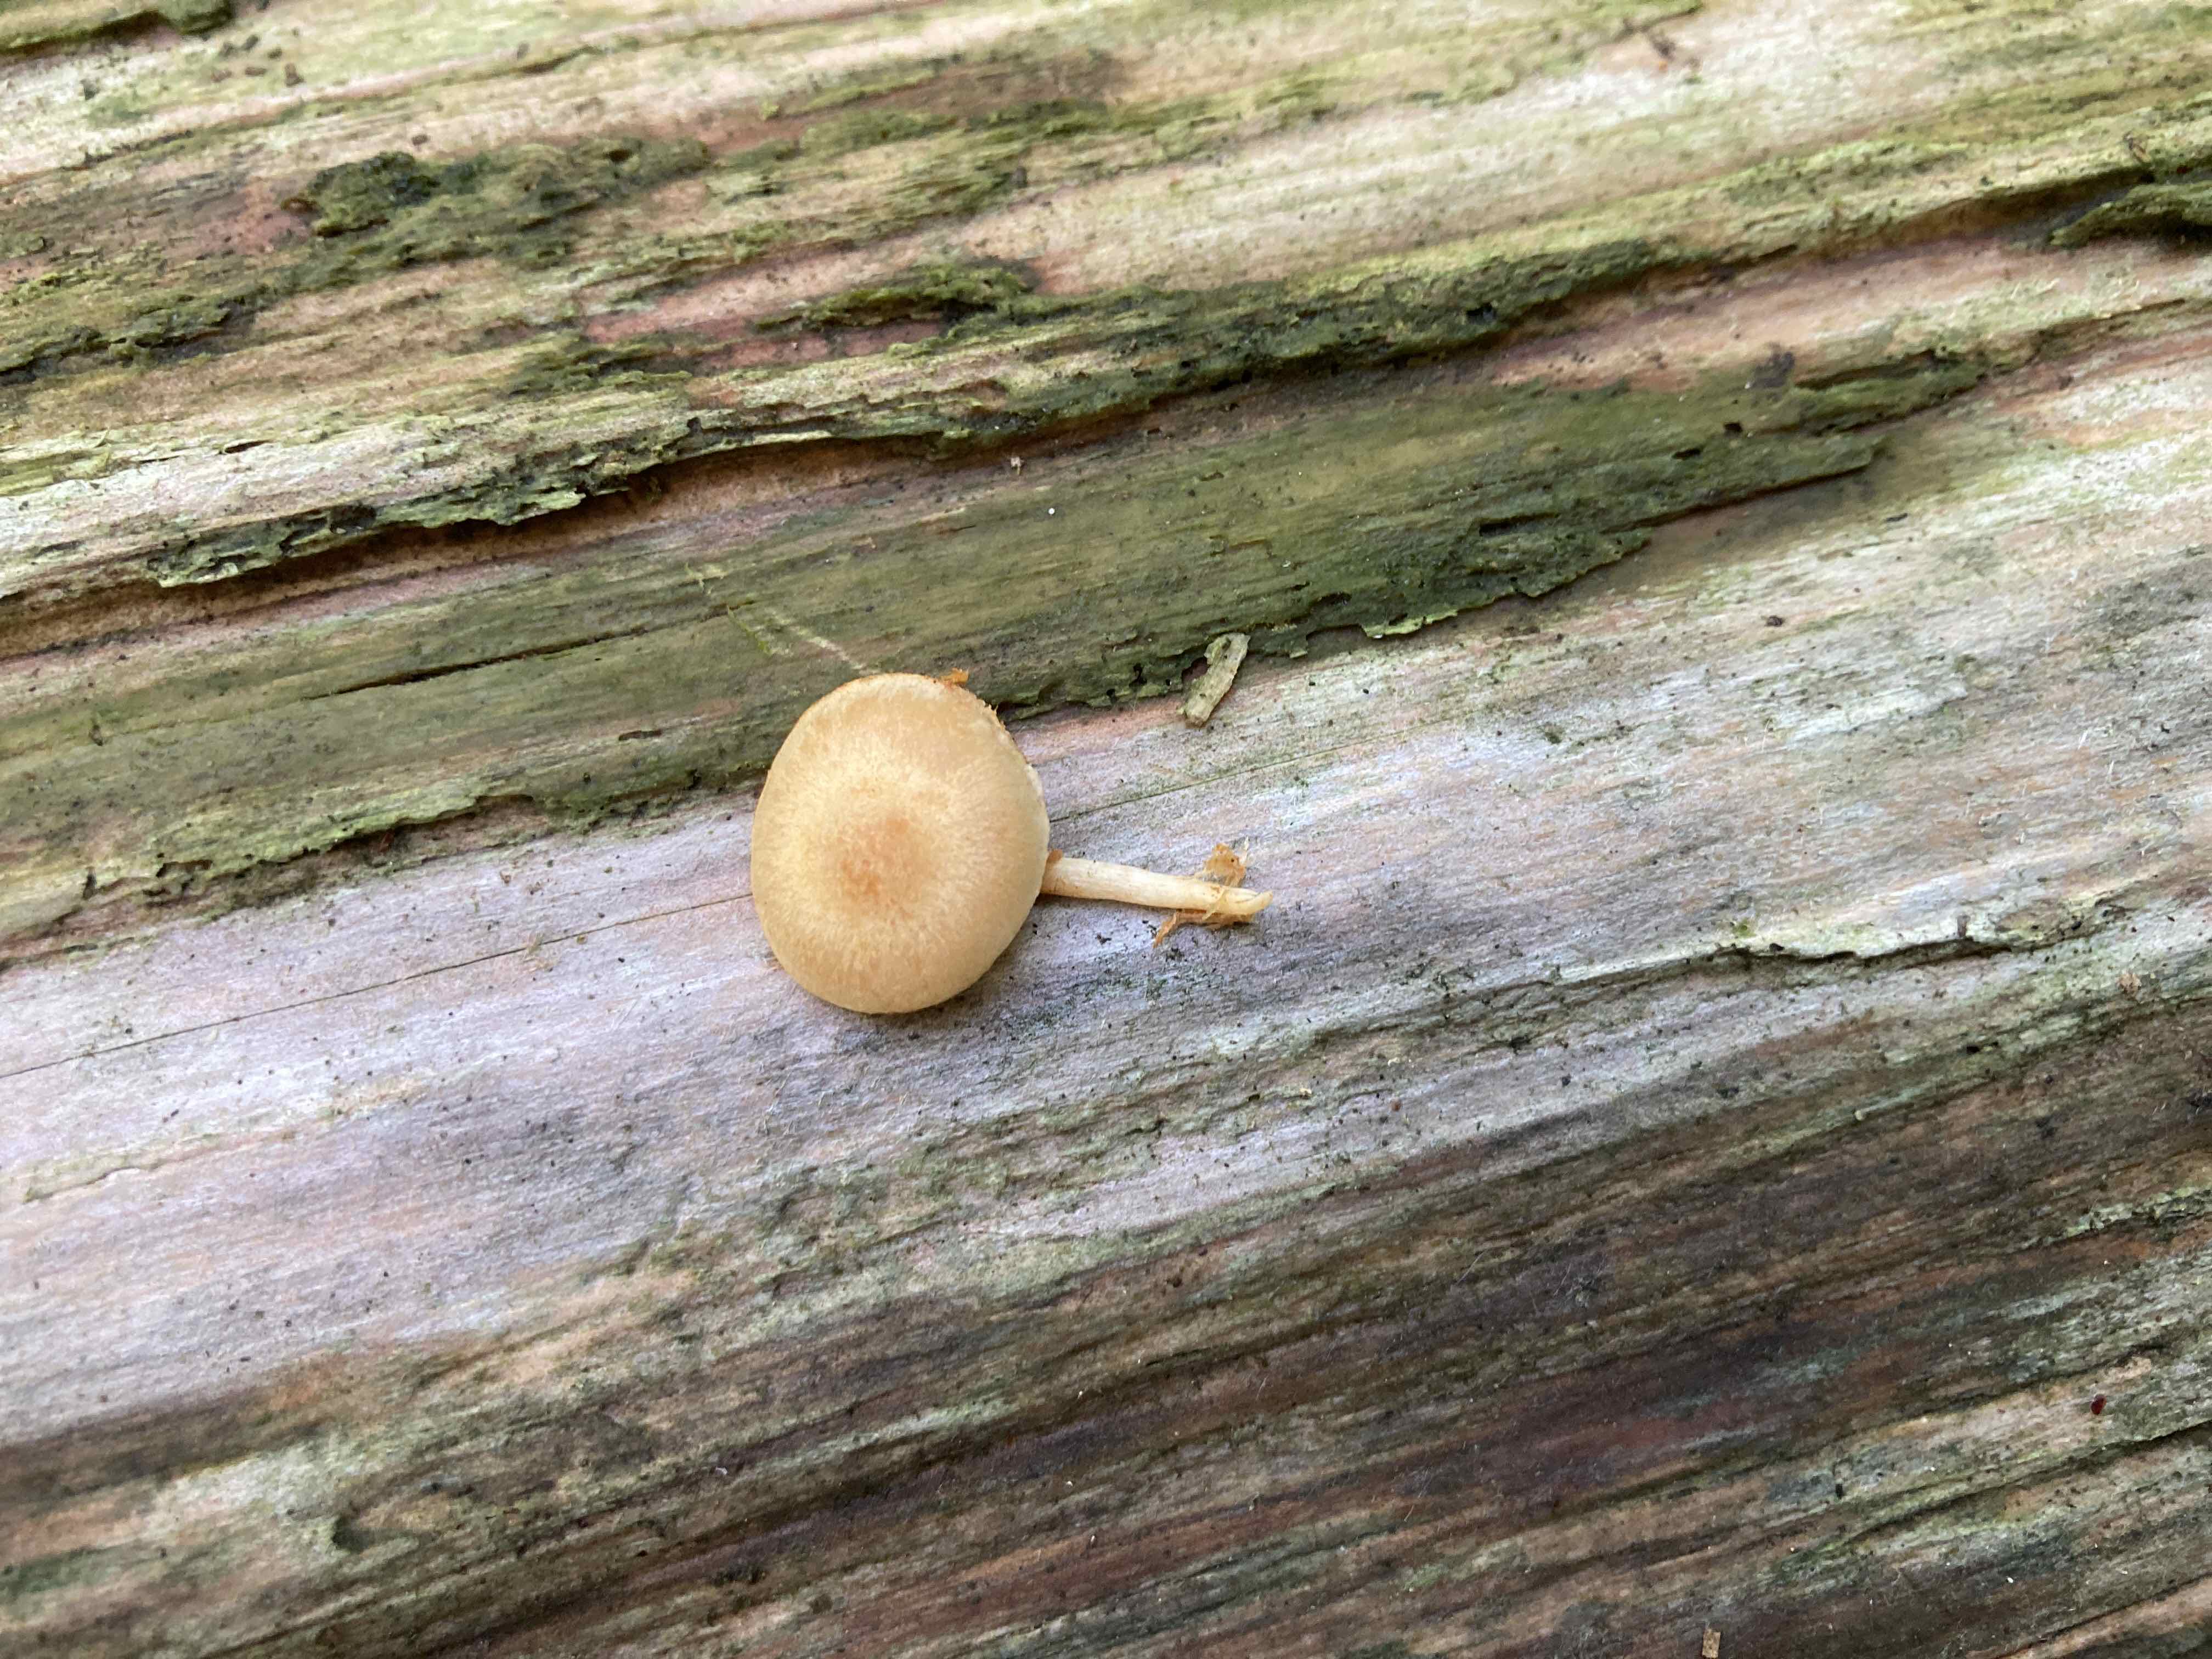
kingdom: Fungi
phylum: Basidiomycota
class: Agaricomycetes
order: Agaricales
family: Hymenogastraceae
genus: Gymnopilus
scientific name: Gymnopilus
